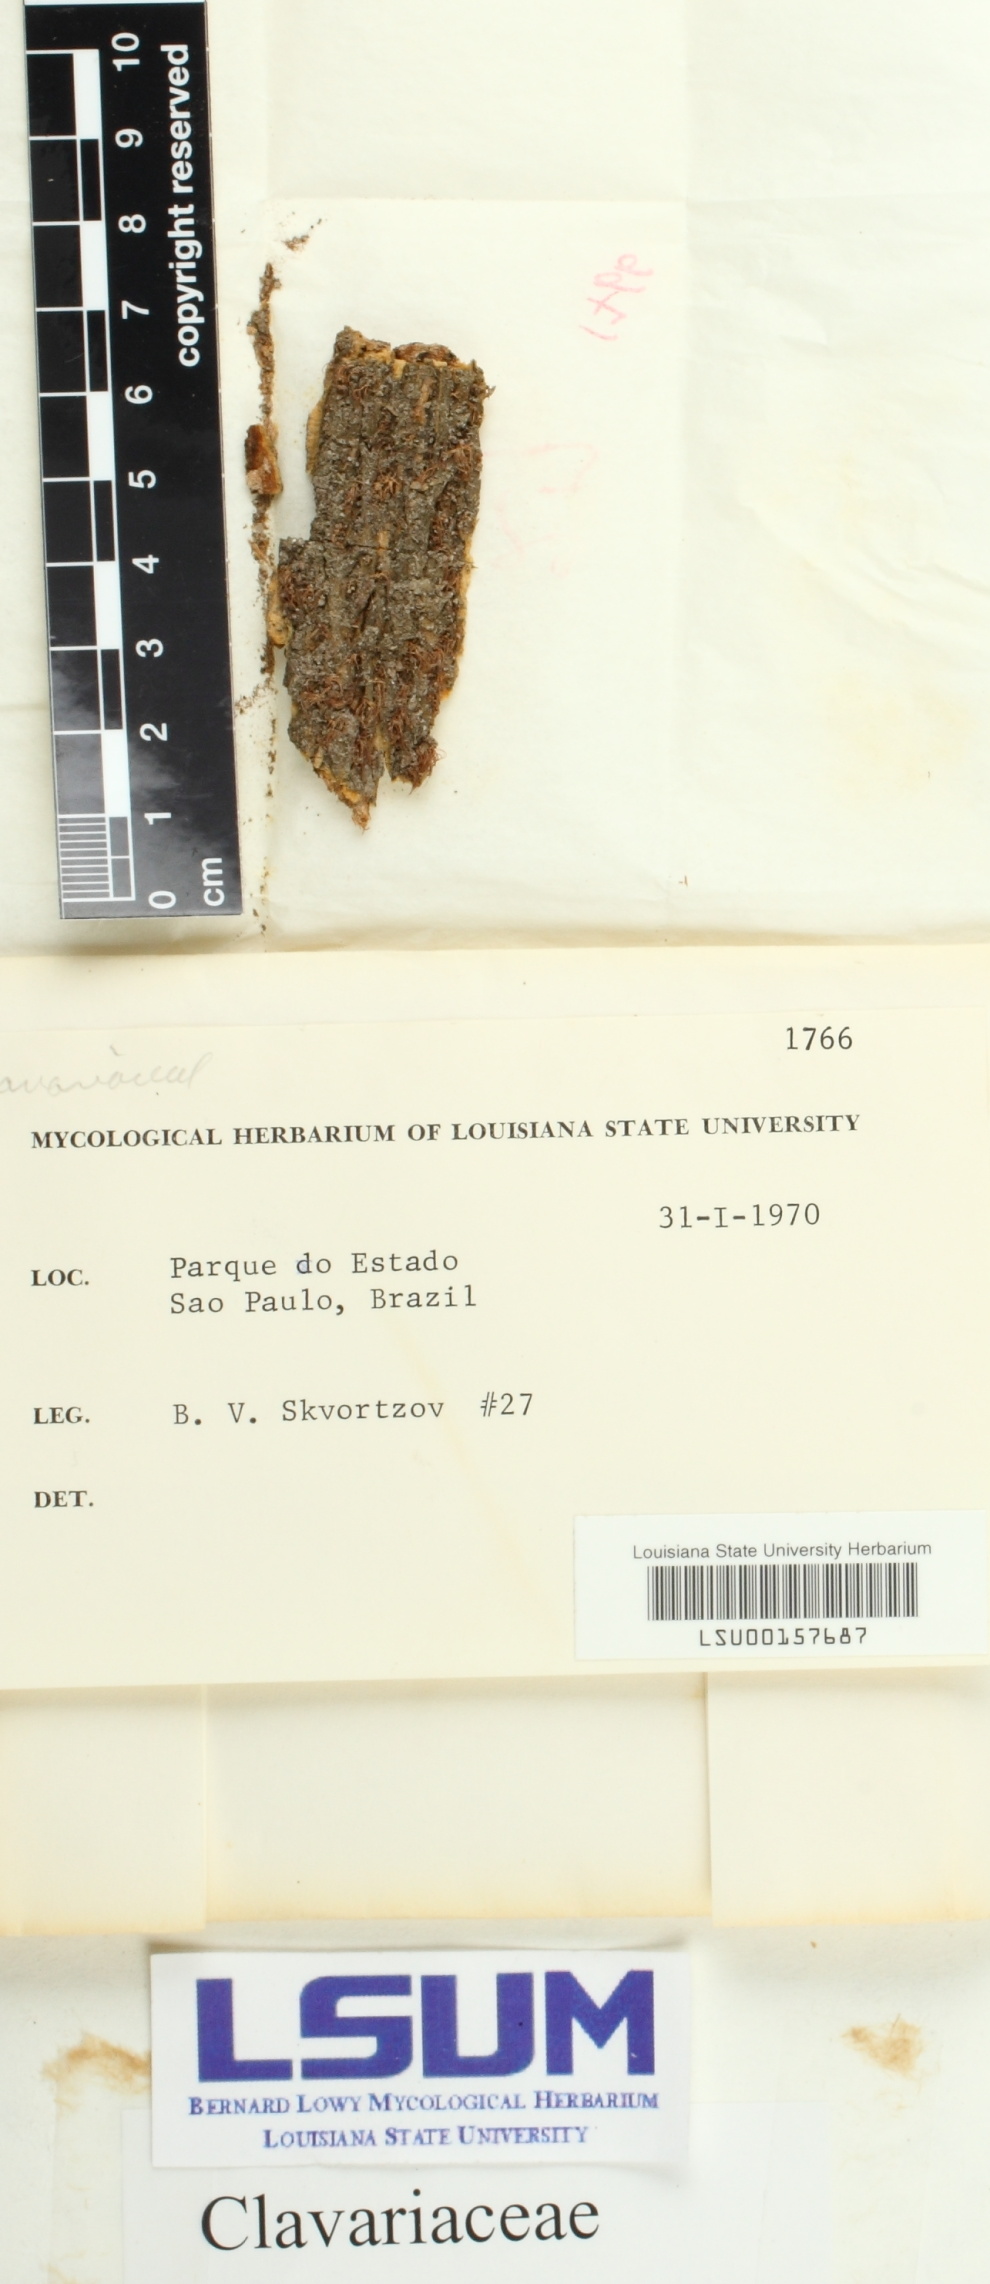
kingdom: Fungi
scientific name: Fungi
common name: Fungi
